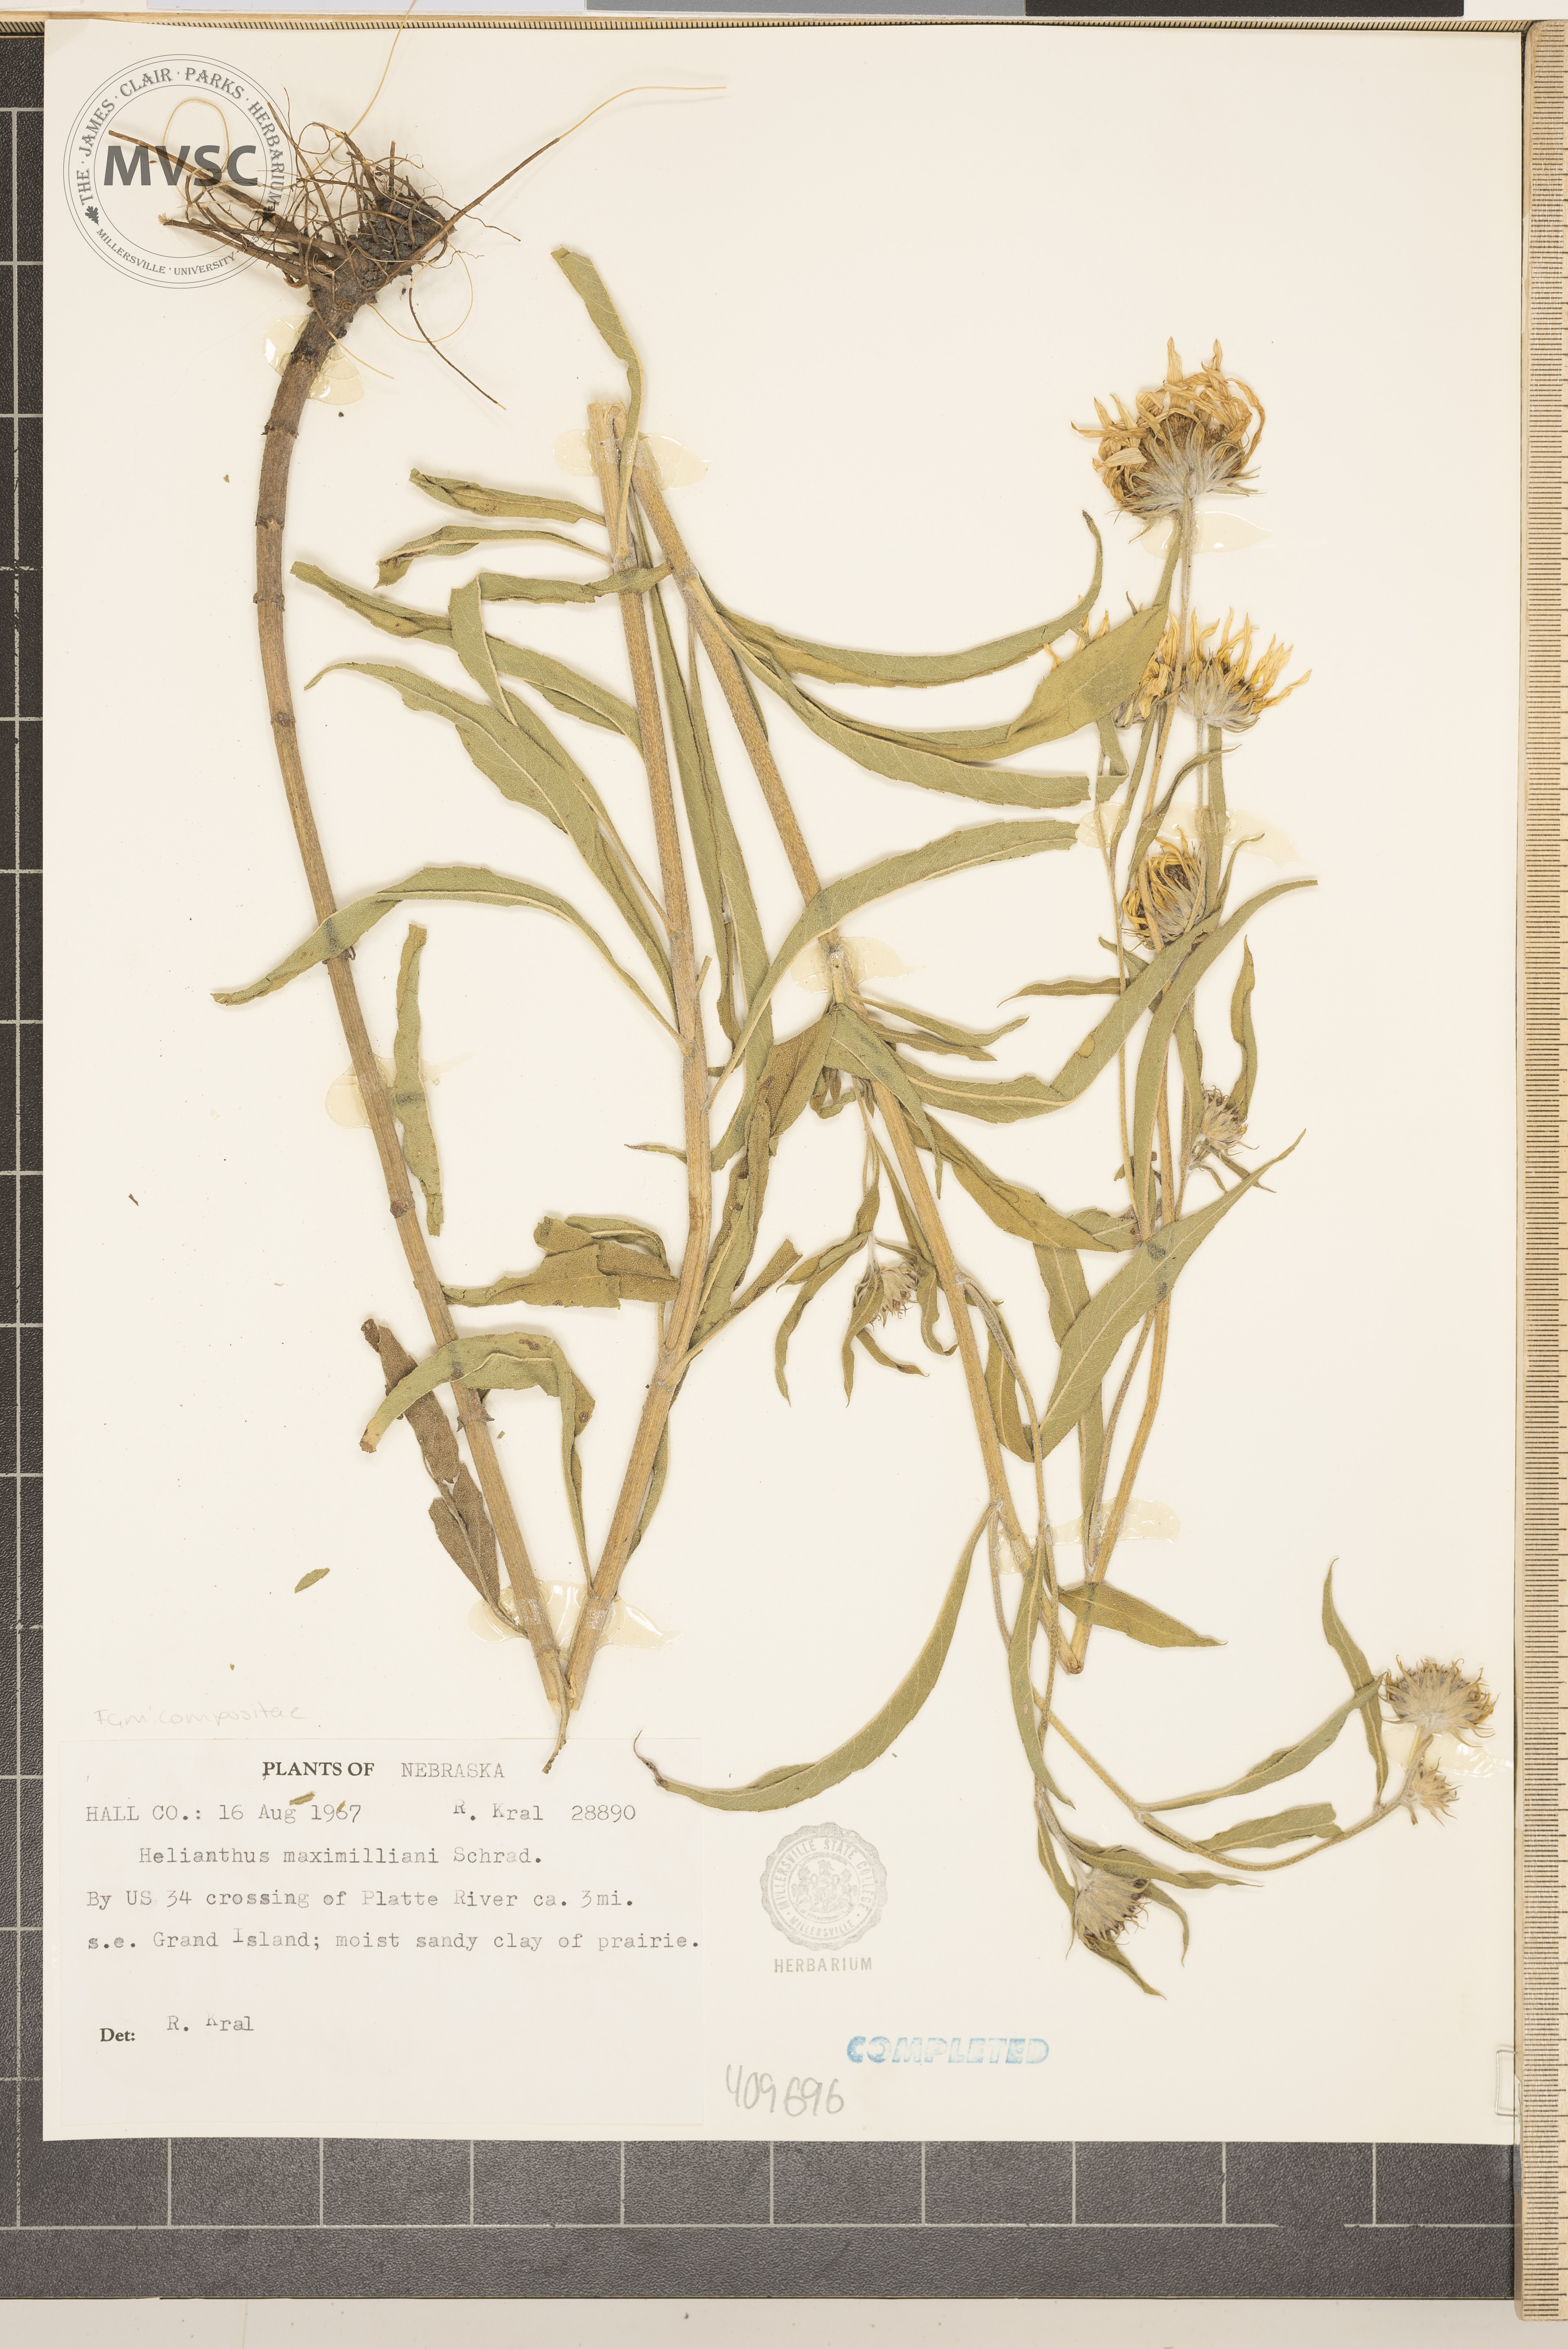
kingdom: Plantae
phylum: Tracheophyta
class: Magnoliopsida
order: Asterales
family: Asteraceae
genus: Helianthus
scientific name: Helianthus maximiliani
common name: Maximilian's sunflower
